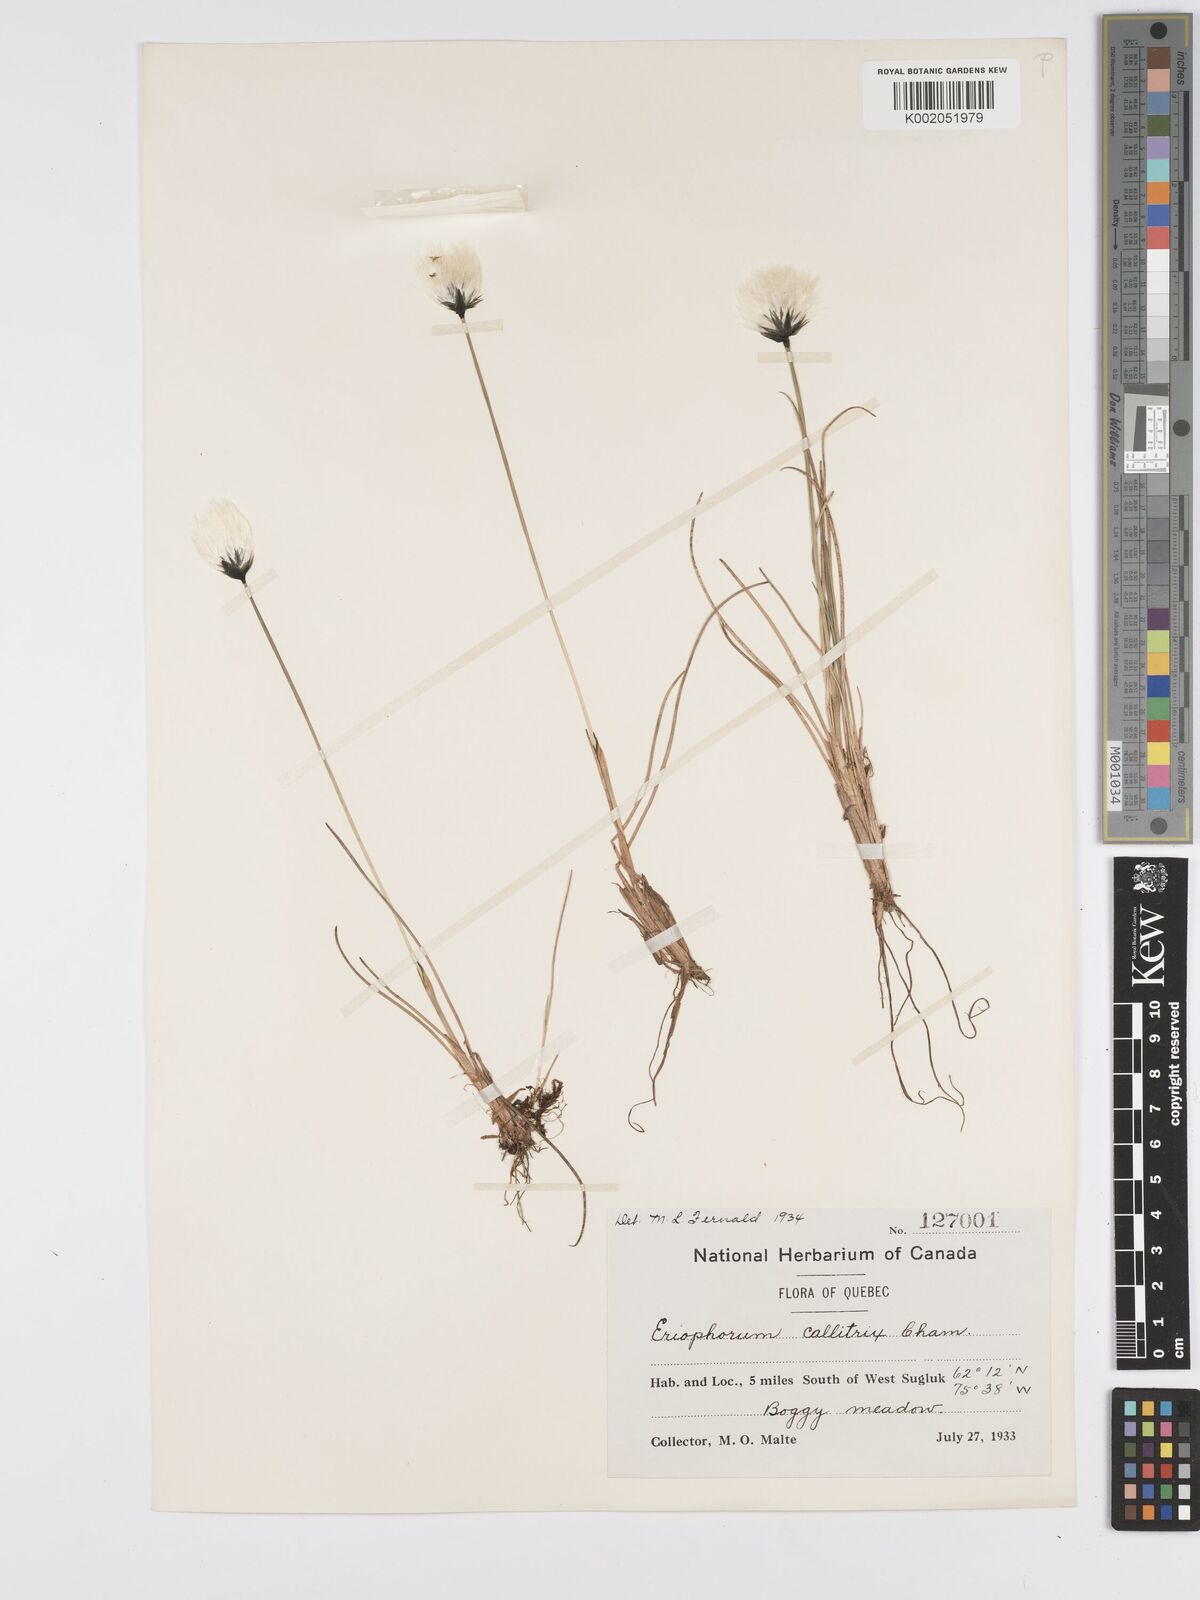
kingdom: Plantae
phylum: Tracheophyta
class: Liliopsida
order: Poales
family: Cyperaceae
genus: Eriophorum
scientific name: Eriophorum callitrix
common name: Arctic cottongrass
